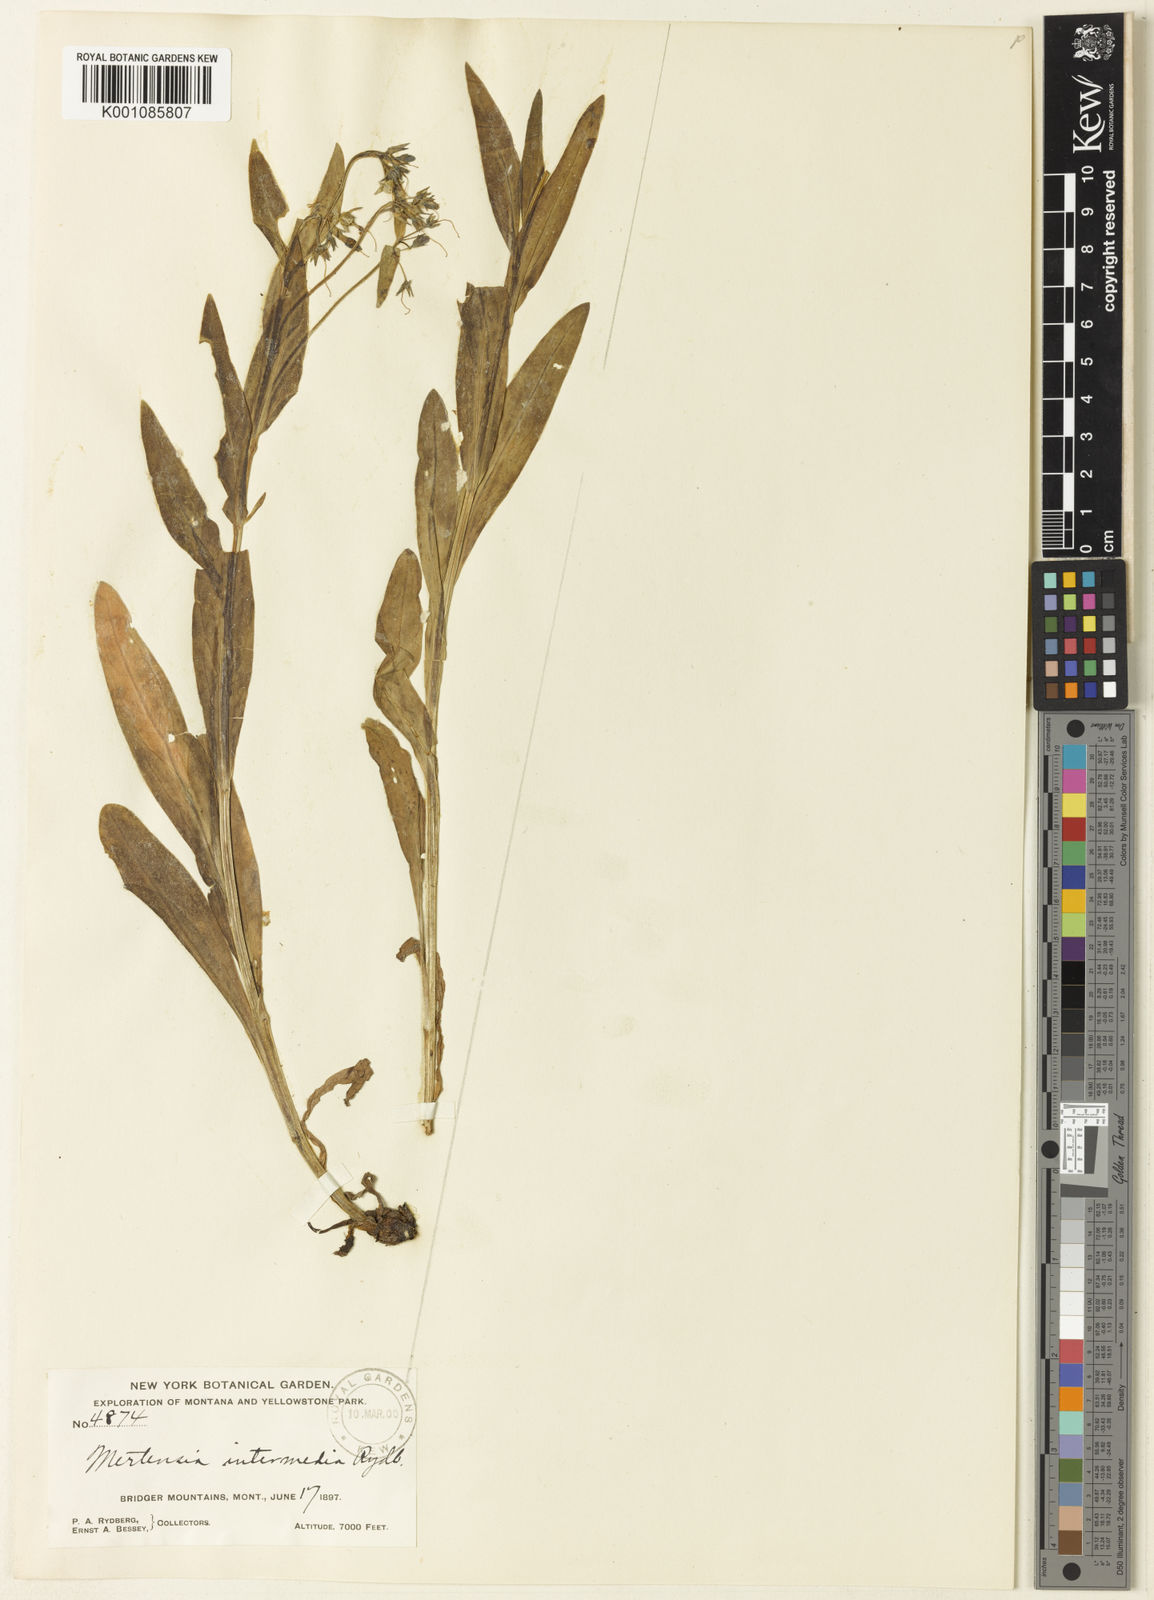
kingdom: Plantae
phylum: Tracheophyta
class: Magnoliopsida
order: Boraginales
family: Boraginaceae
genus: Mertensia
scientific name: Mertensia nevadensis
